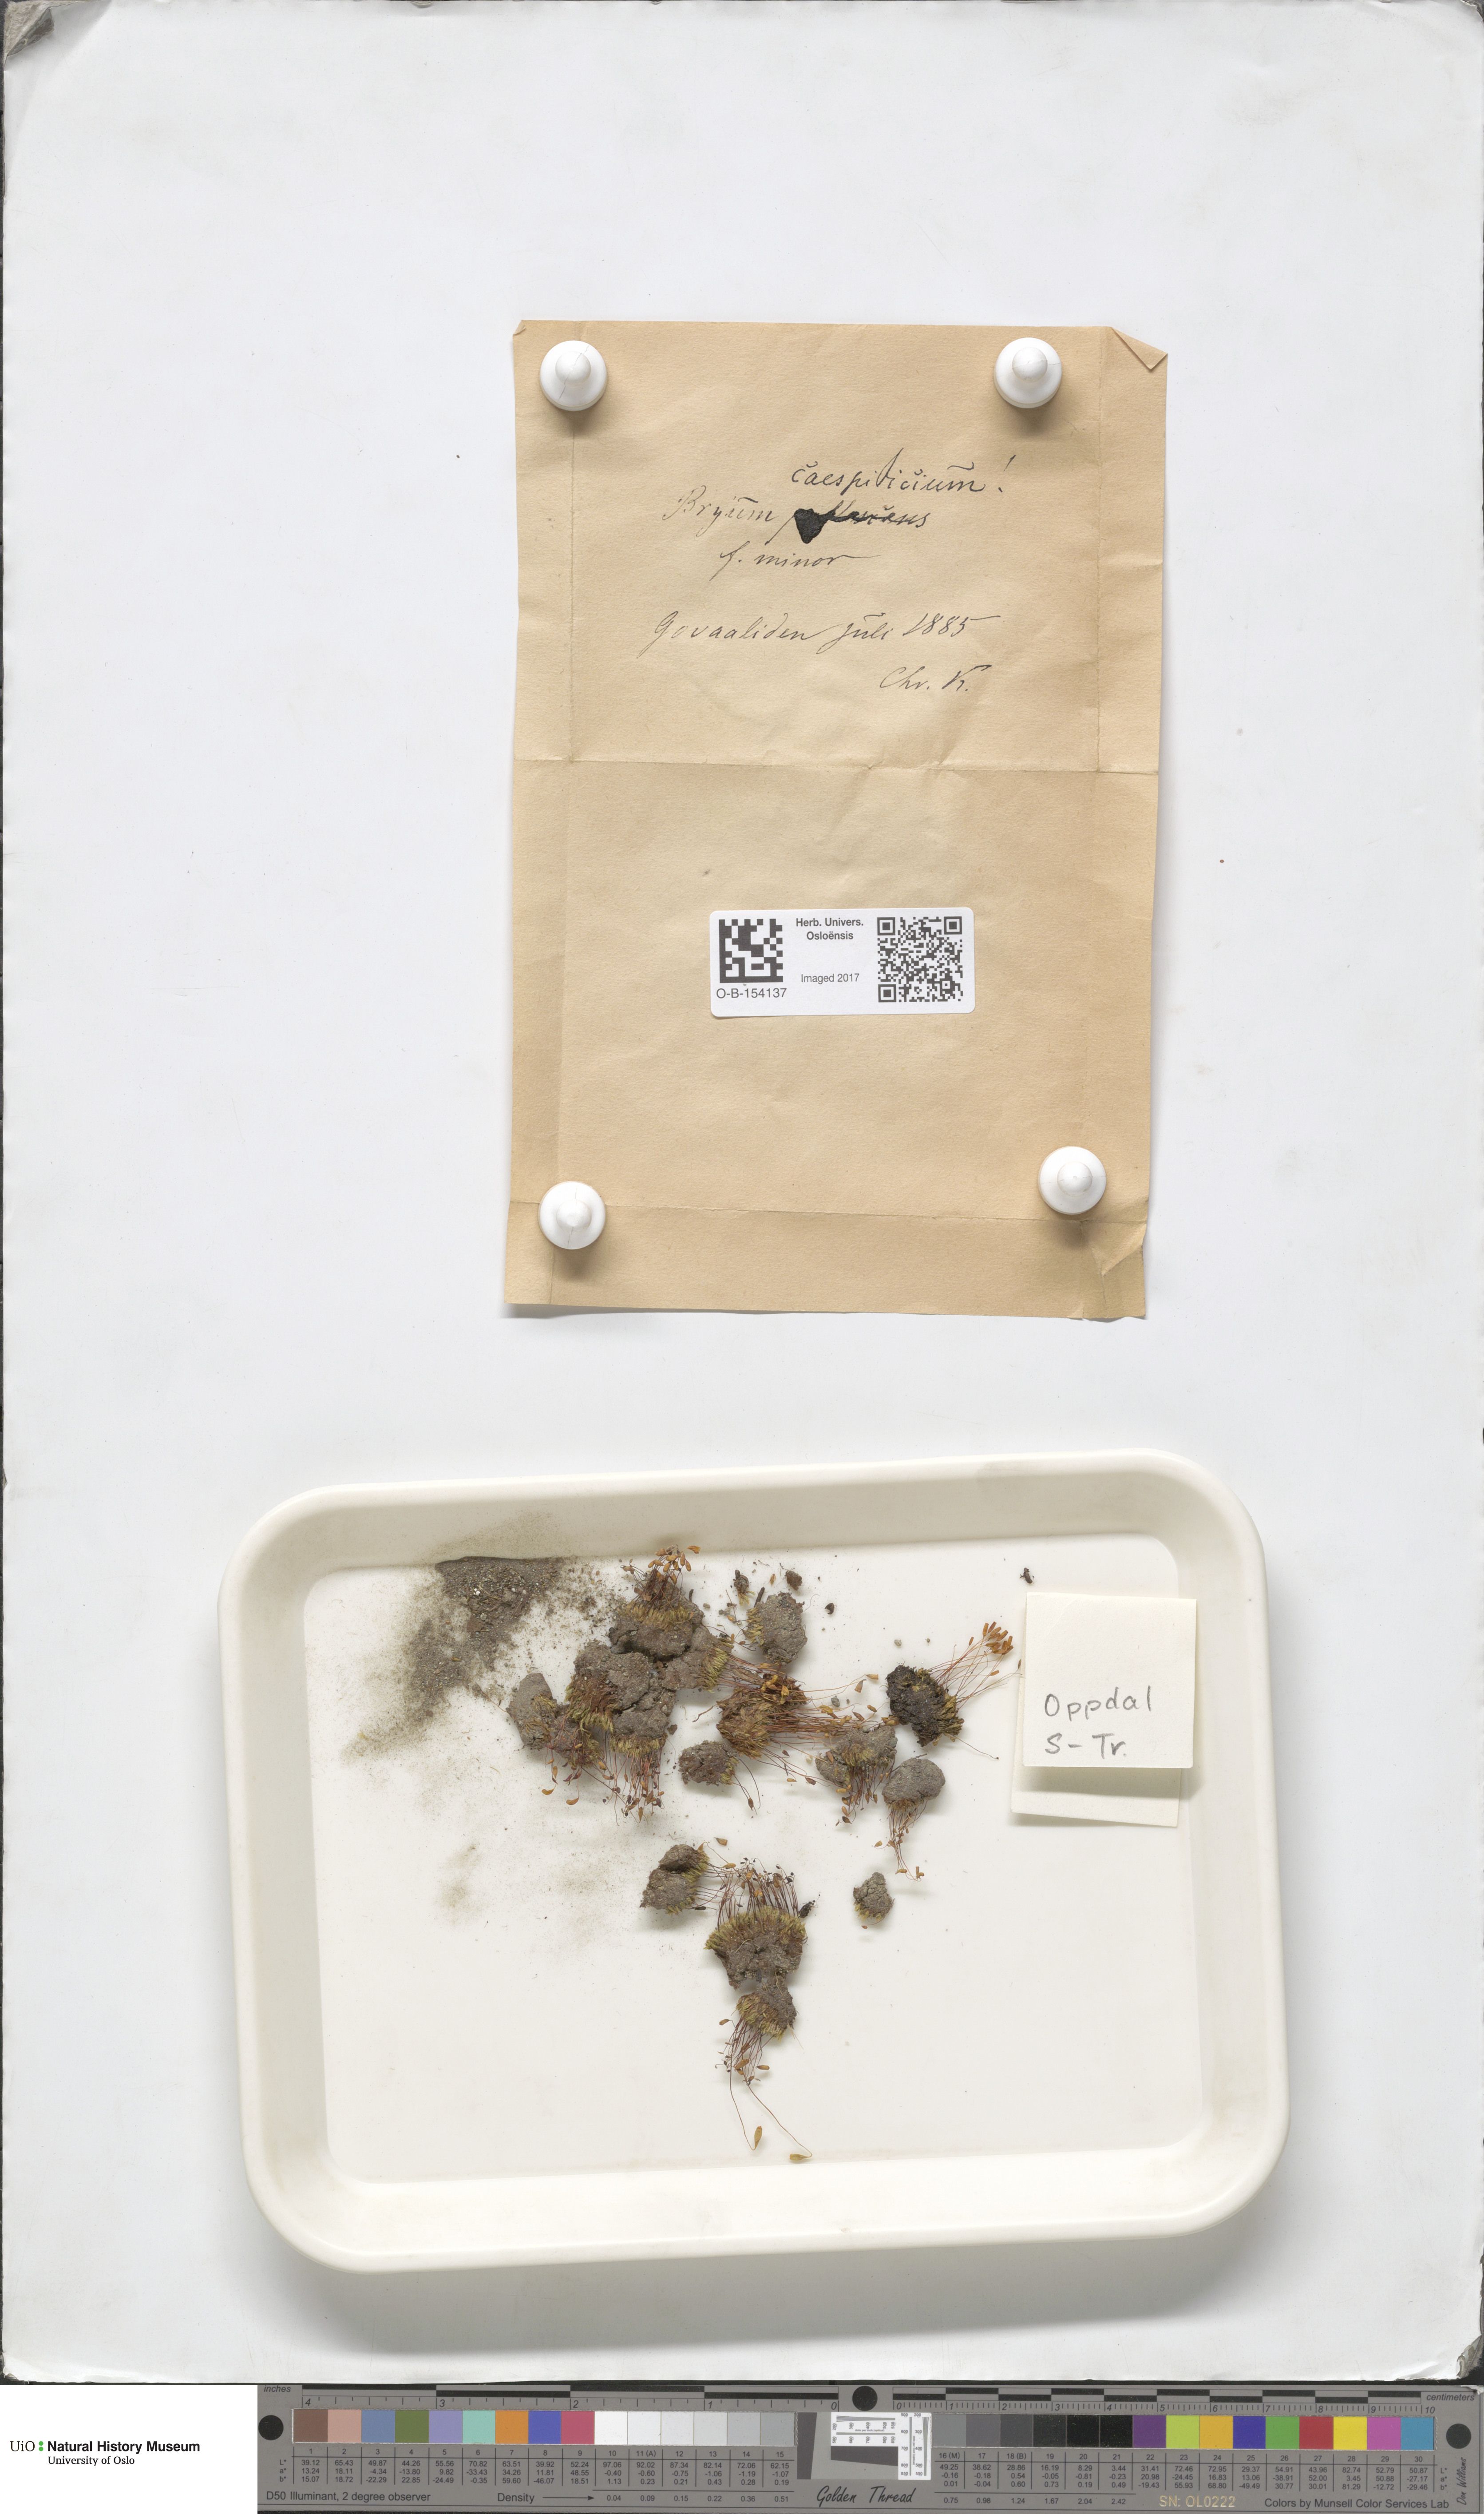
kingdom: Plantae
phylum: Bryophyta
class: Bryopsida
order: Bryales
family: Bryaceae
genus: Gemmabryum
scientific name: Gemmabryum caespiticium
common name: Handbell moss
